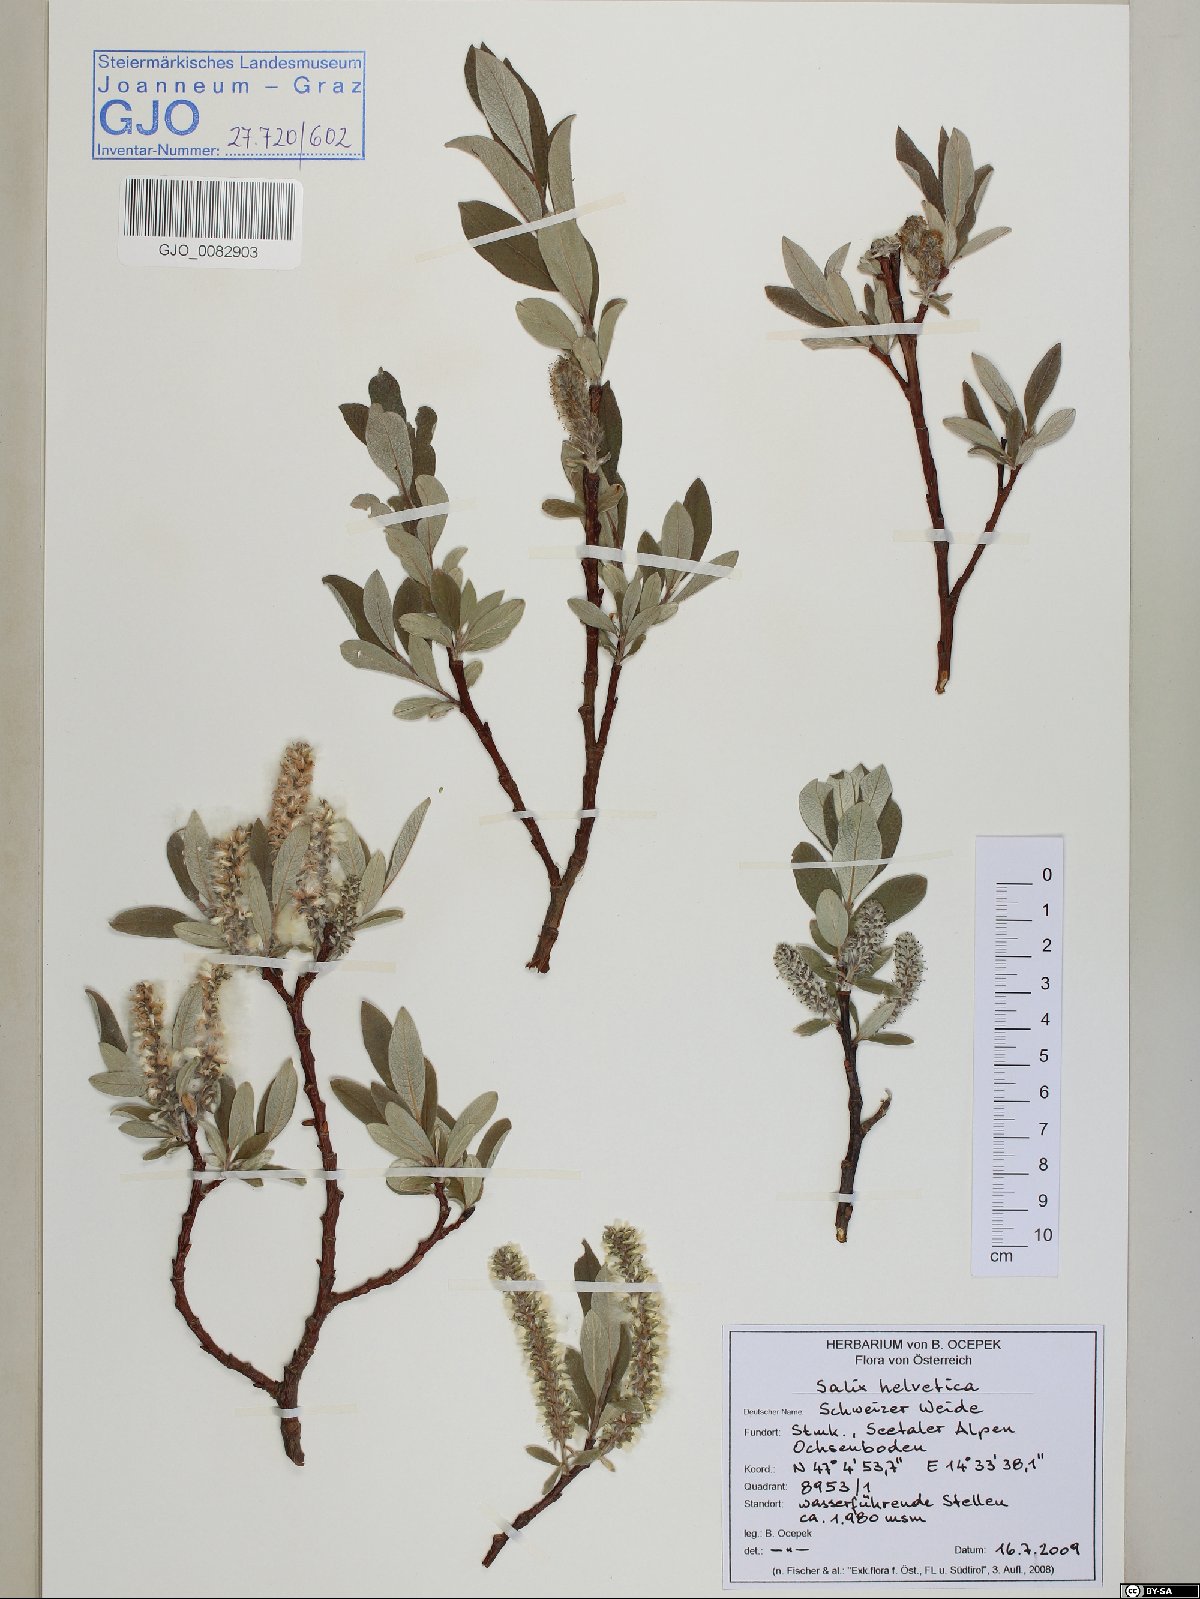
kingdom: Plantae
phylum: Tracheophyta
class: Magnoliopsida
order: Malpighiales
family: Salicaceae
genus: Salix
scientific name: Salix helvetica
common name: Swiss willow
